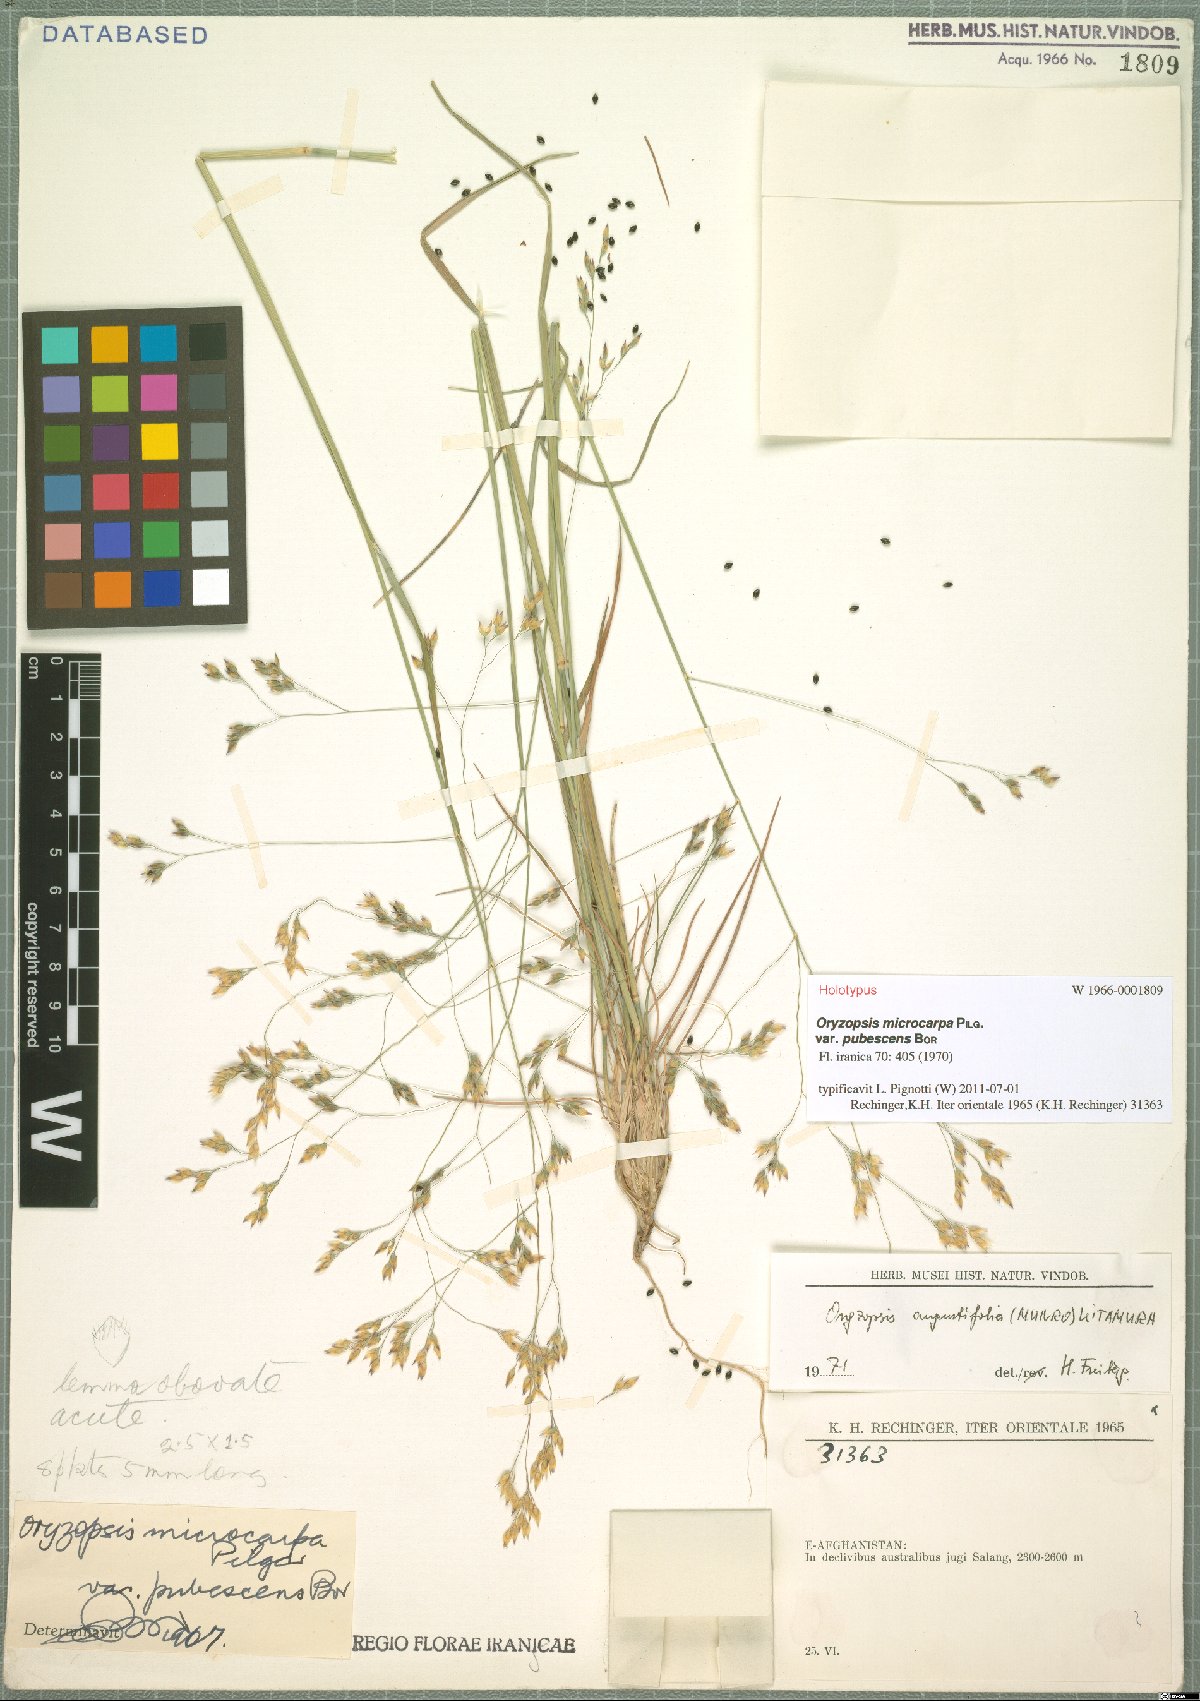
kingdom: Plantae
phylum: Tracheophyta
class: Liliopsida
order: Poales
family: Poaceae
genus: Piptatherum
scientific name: Piptatherum angustifolium
